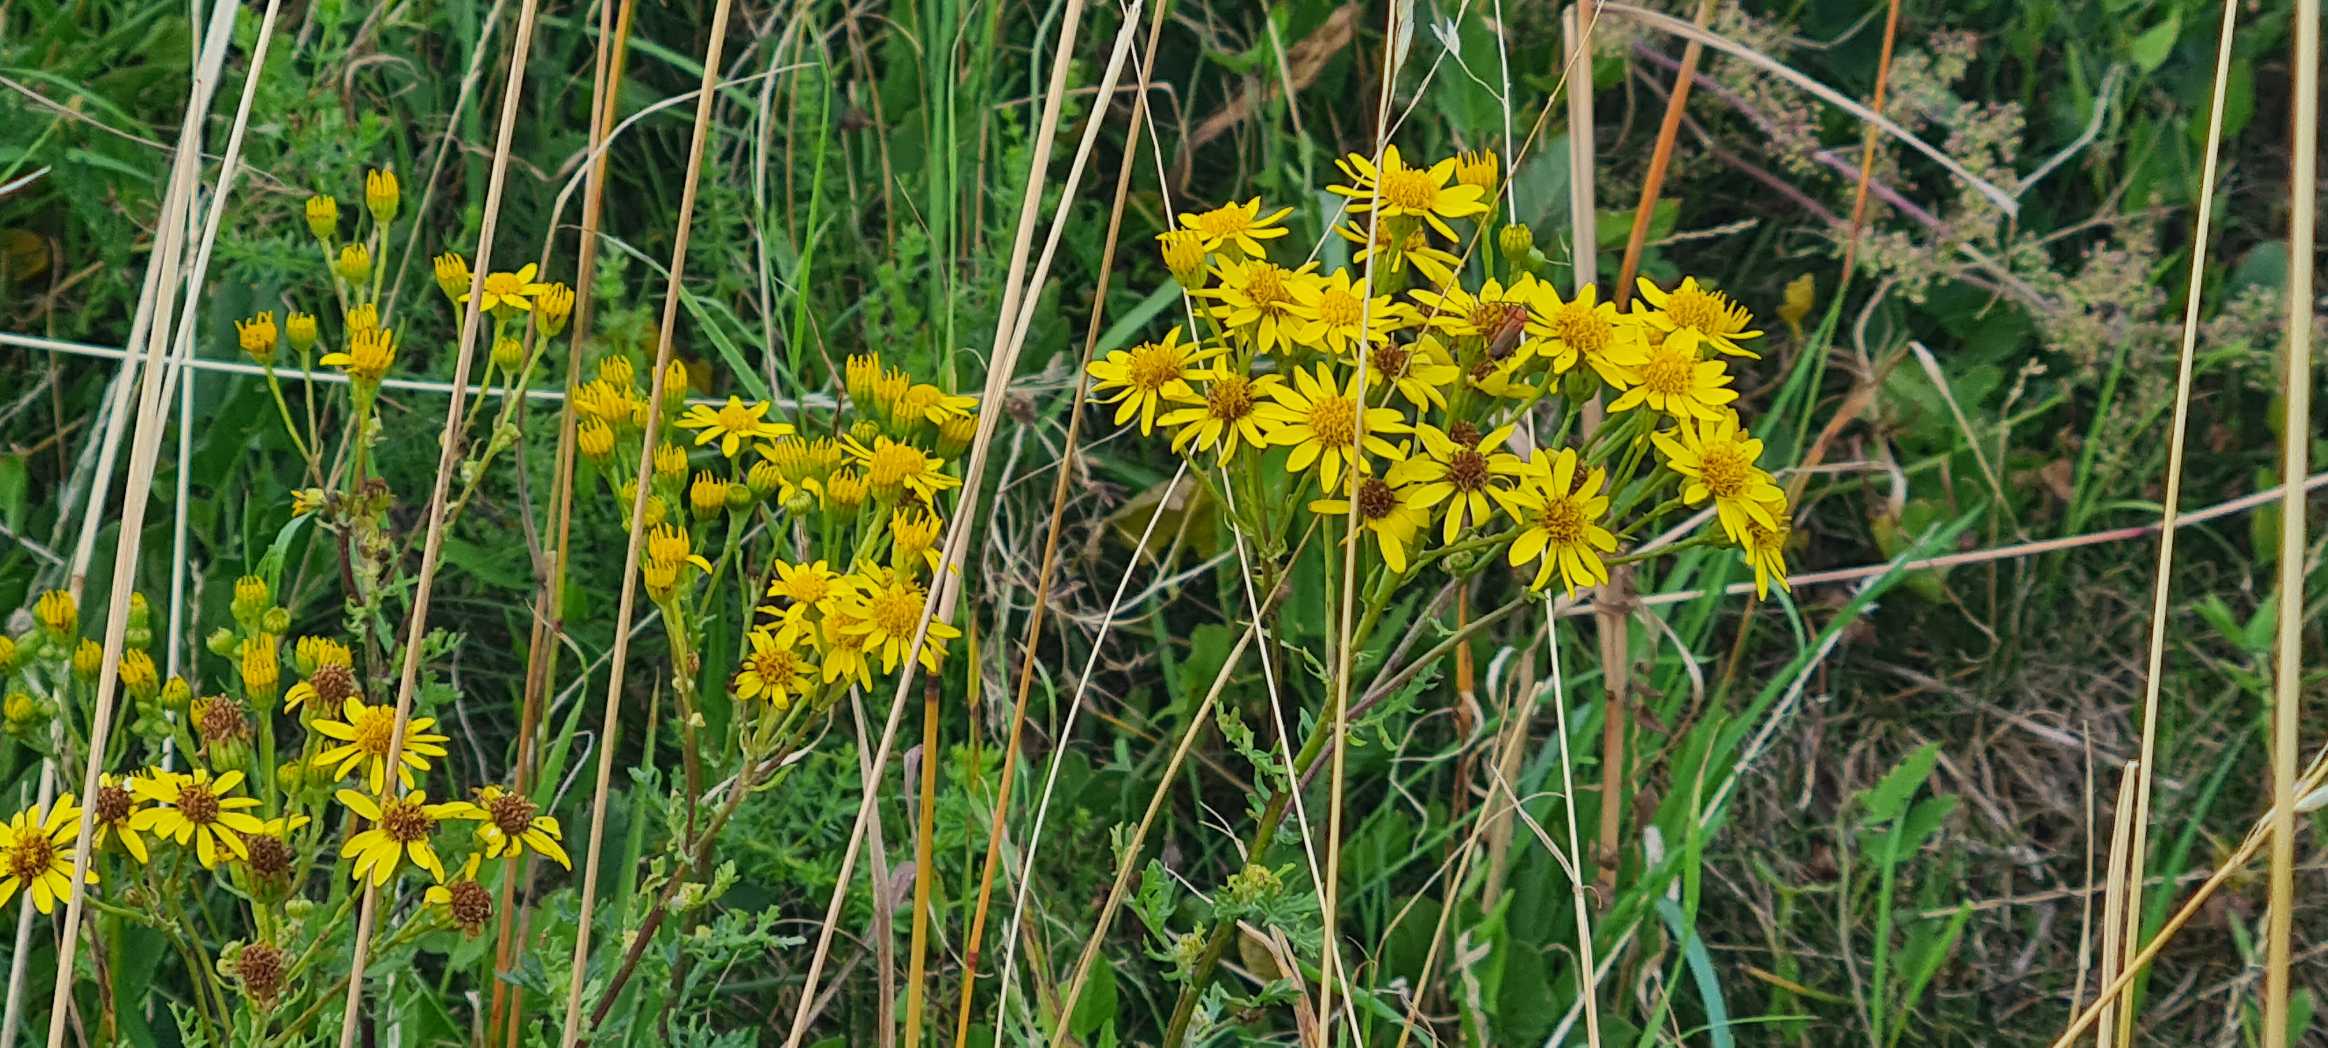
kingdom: Plantae
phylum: Tracheophyta
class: Magnoliopsida
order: Asterales
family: Asteraceae
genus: Jacobaea
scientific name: Jacobaea vulgaris
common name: Eng-brandbæger
